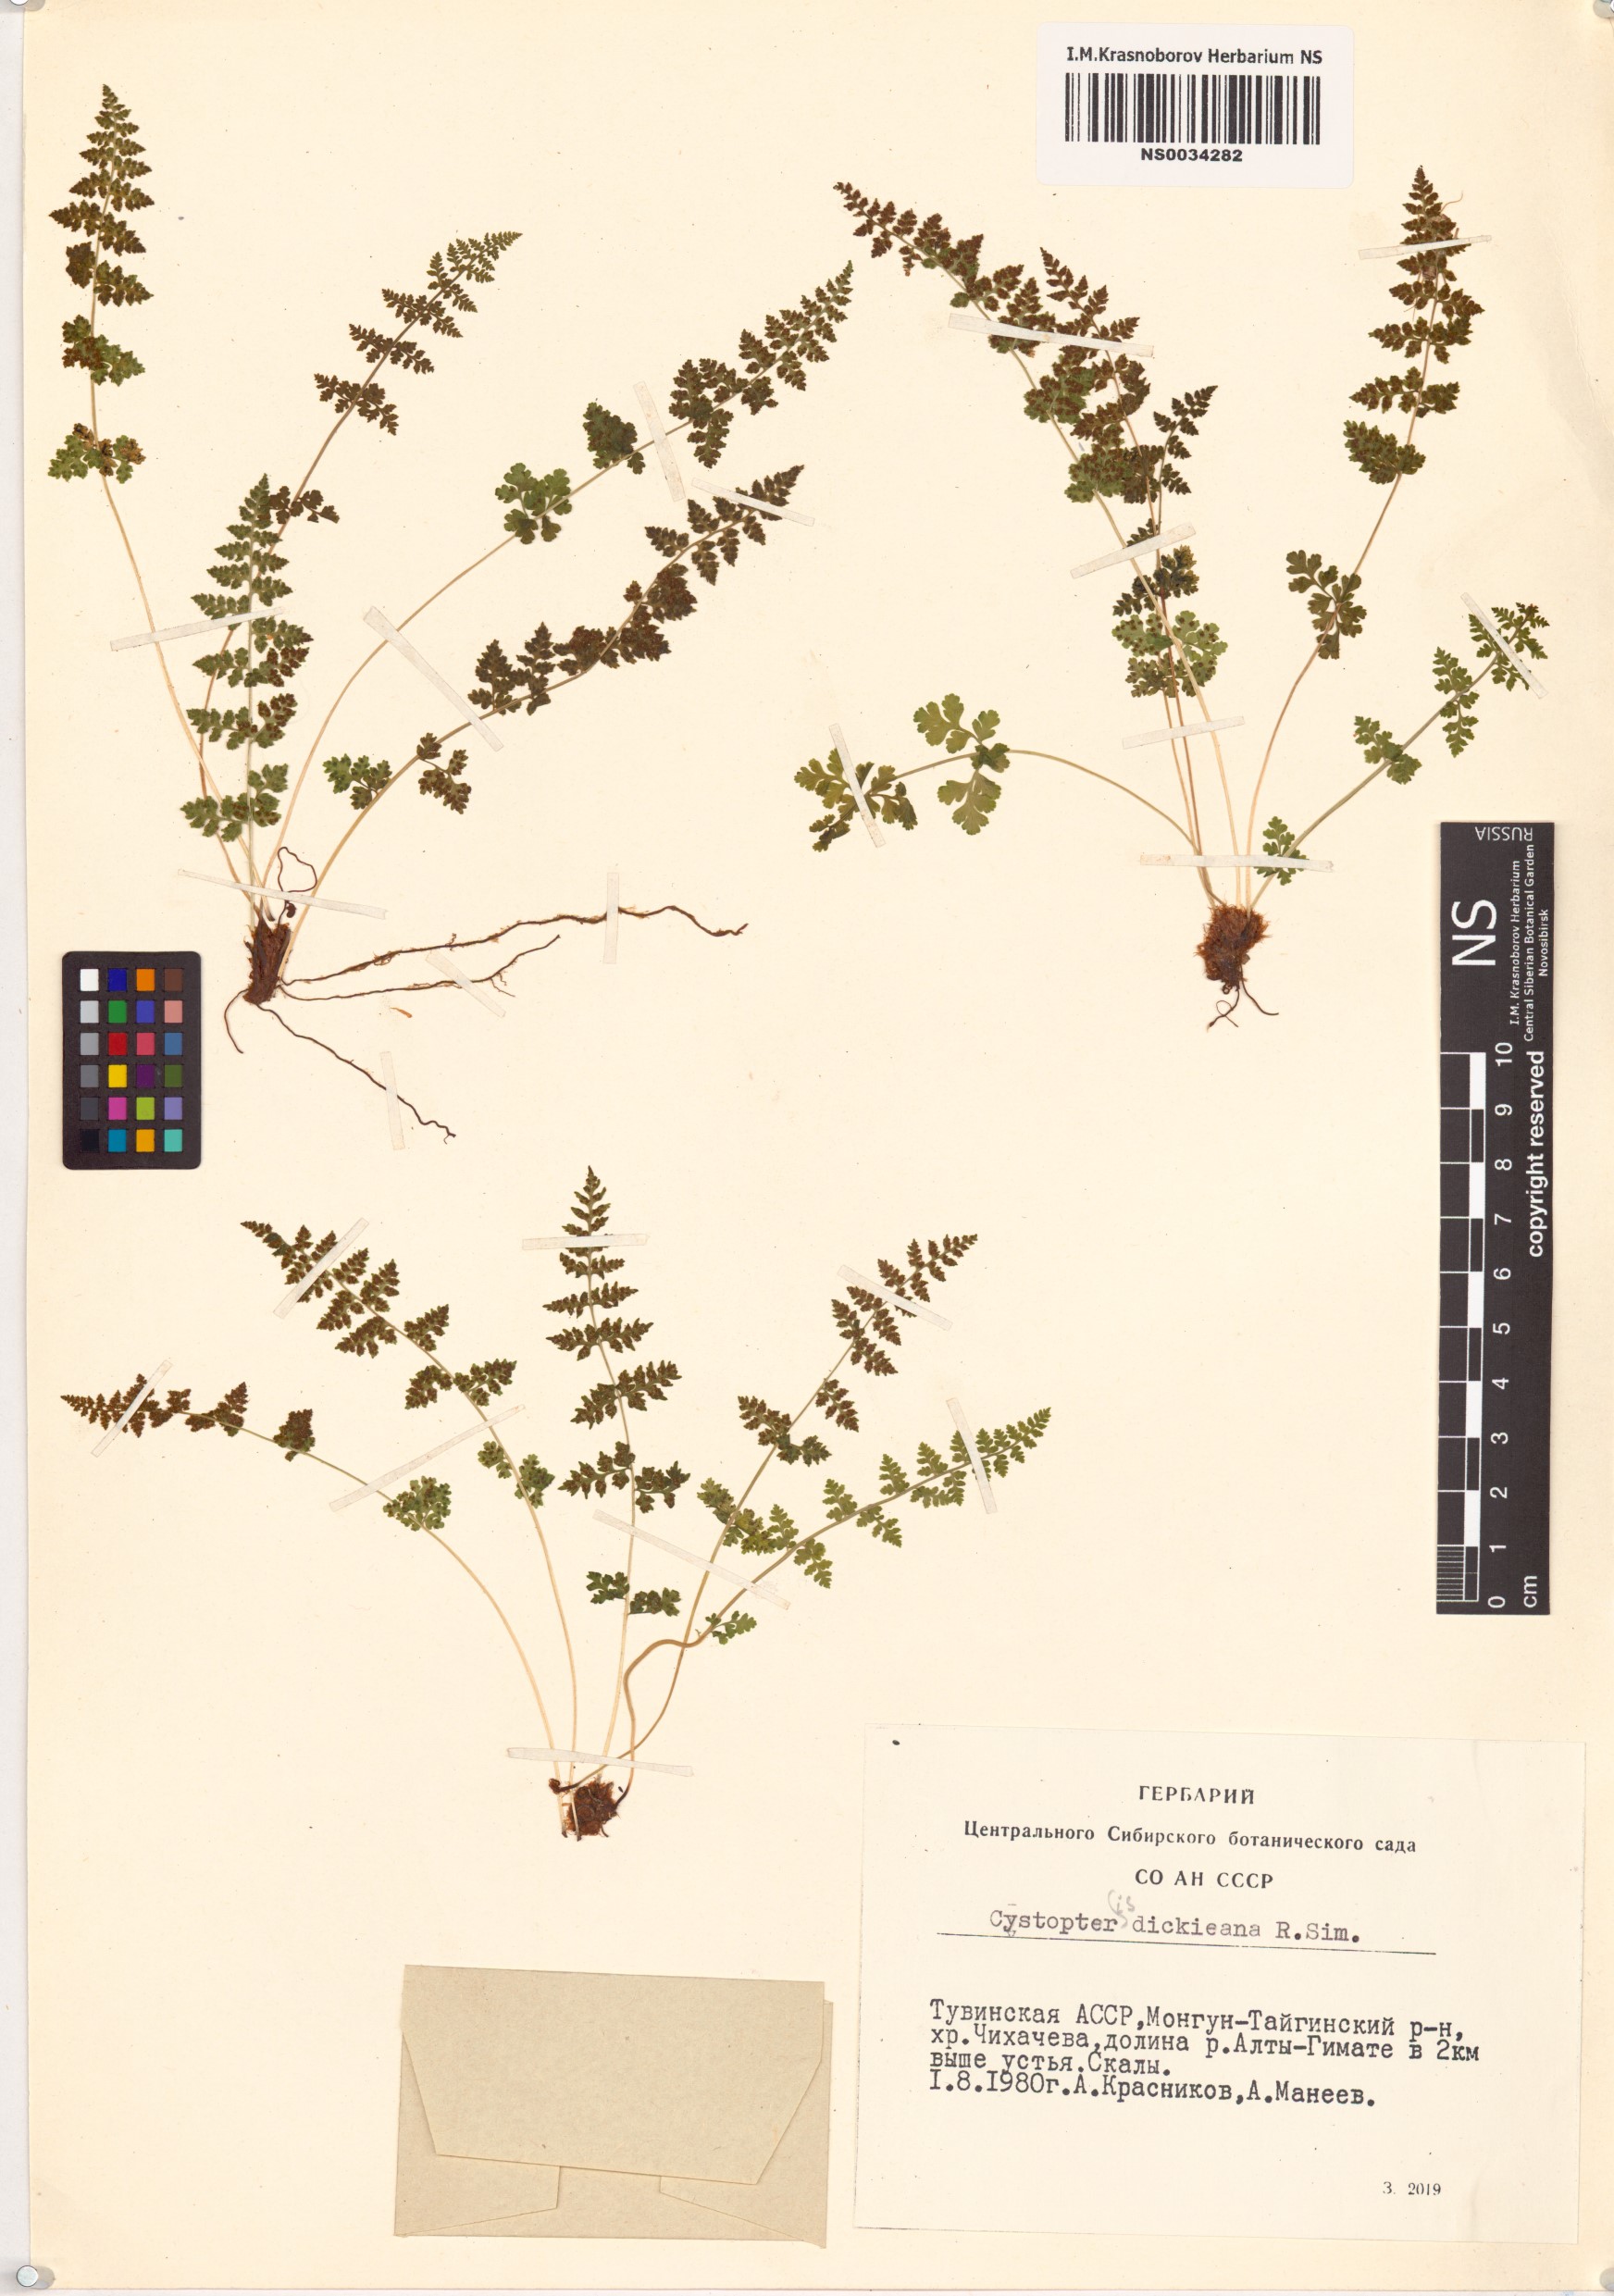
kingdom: Plantae
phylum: Tracheophyta
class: Polypodiopsida
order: Polypodiales
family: Cystopteridaceae
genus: Cystopteris
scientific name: Cystopteris dickieana
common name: Dickie's bladder-fern
